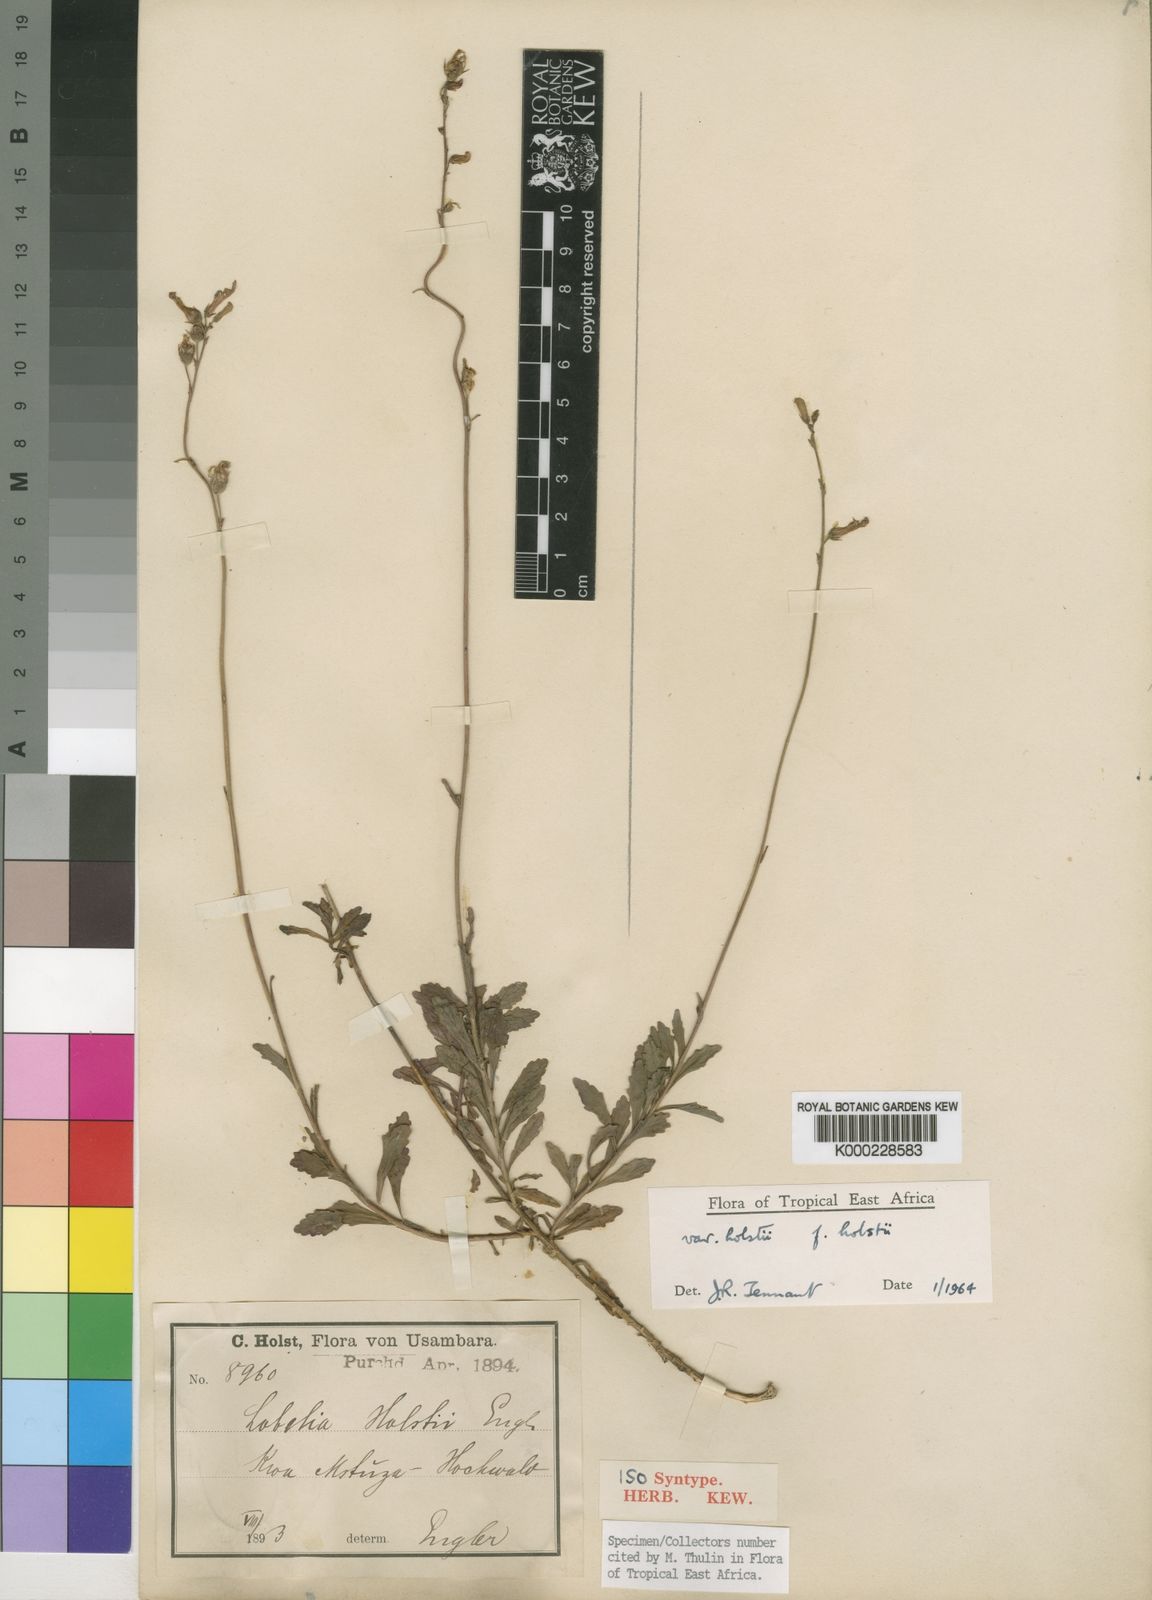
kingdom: Plantae
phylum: Tracheophyta
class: Magnoliopsida
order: Asterales
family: Campanulaceae
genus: Lobelia
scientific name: Lobelia holstii
